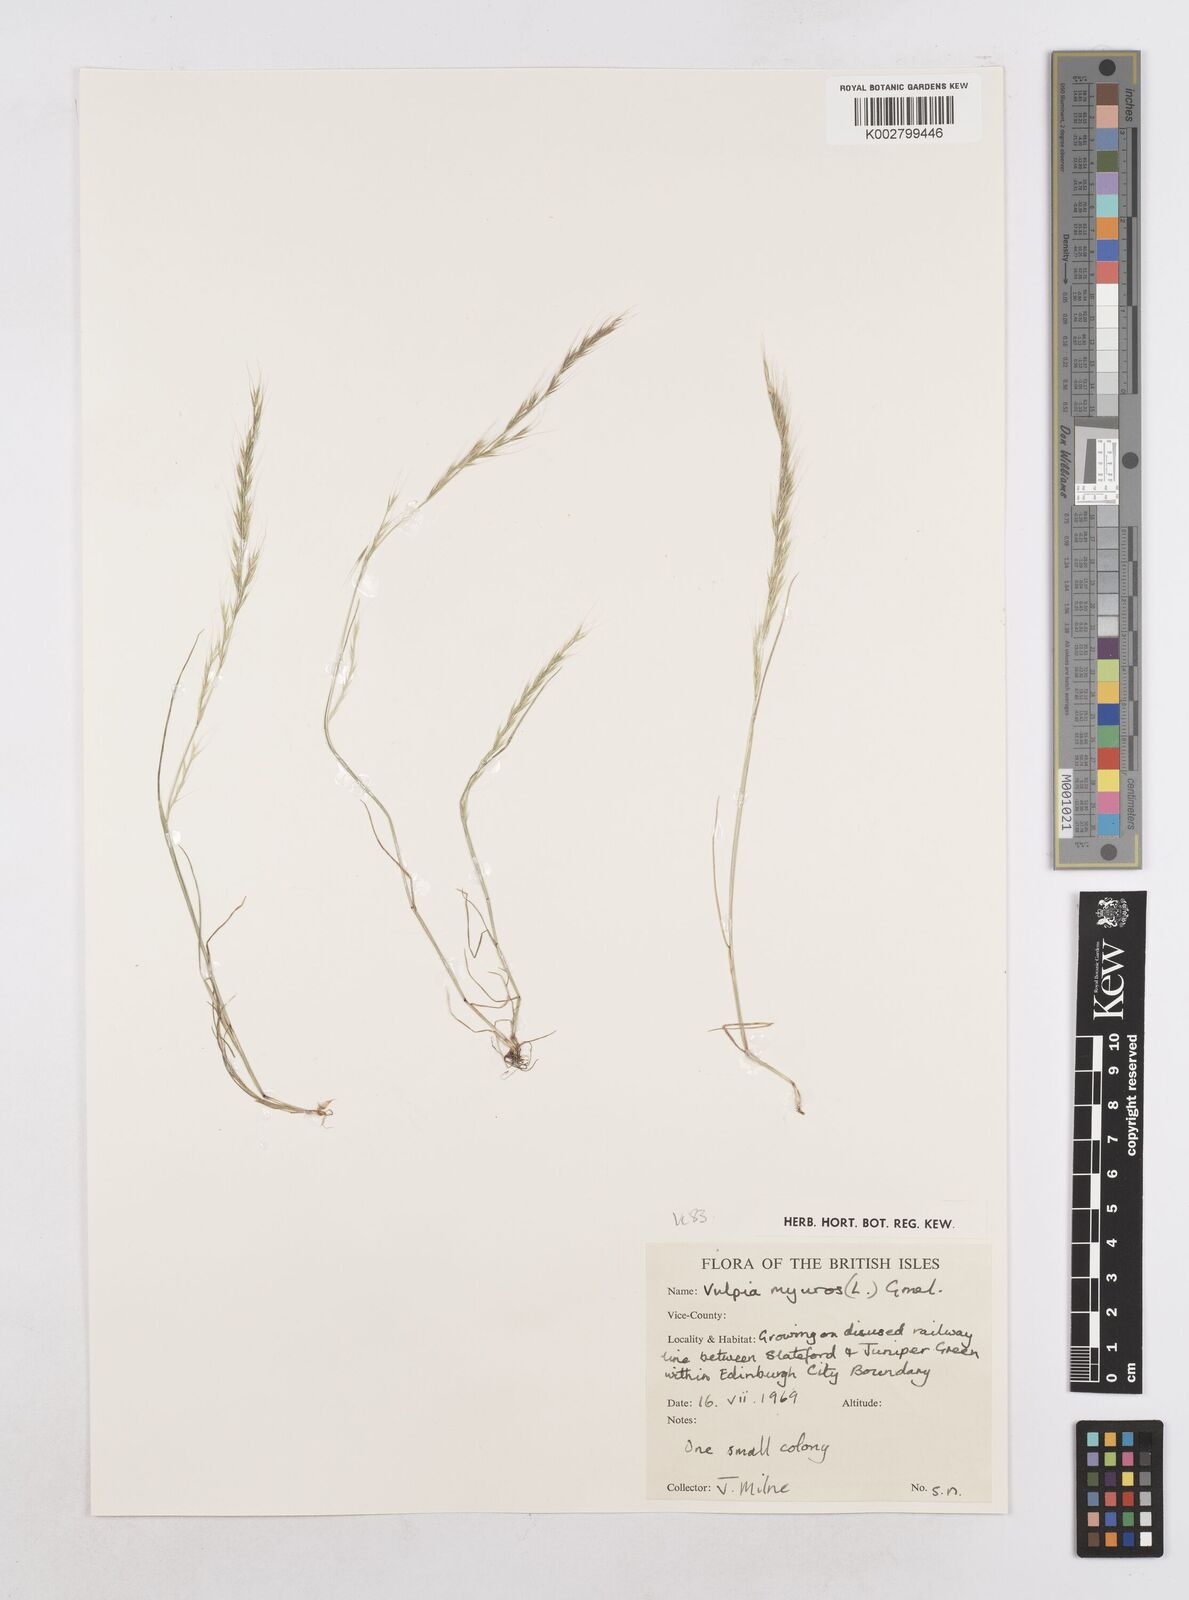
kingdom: Plantae
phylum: Tracheophyta
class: Liliopsida
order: Poales
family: Poaceae
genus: Festuca
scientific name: Festuca myuros
